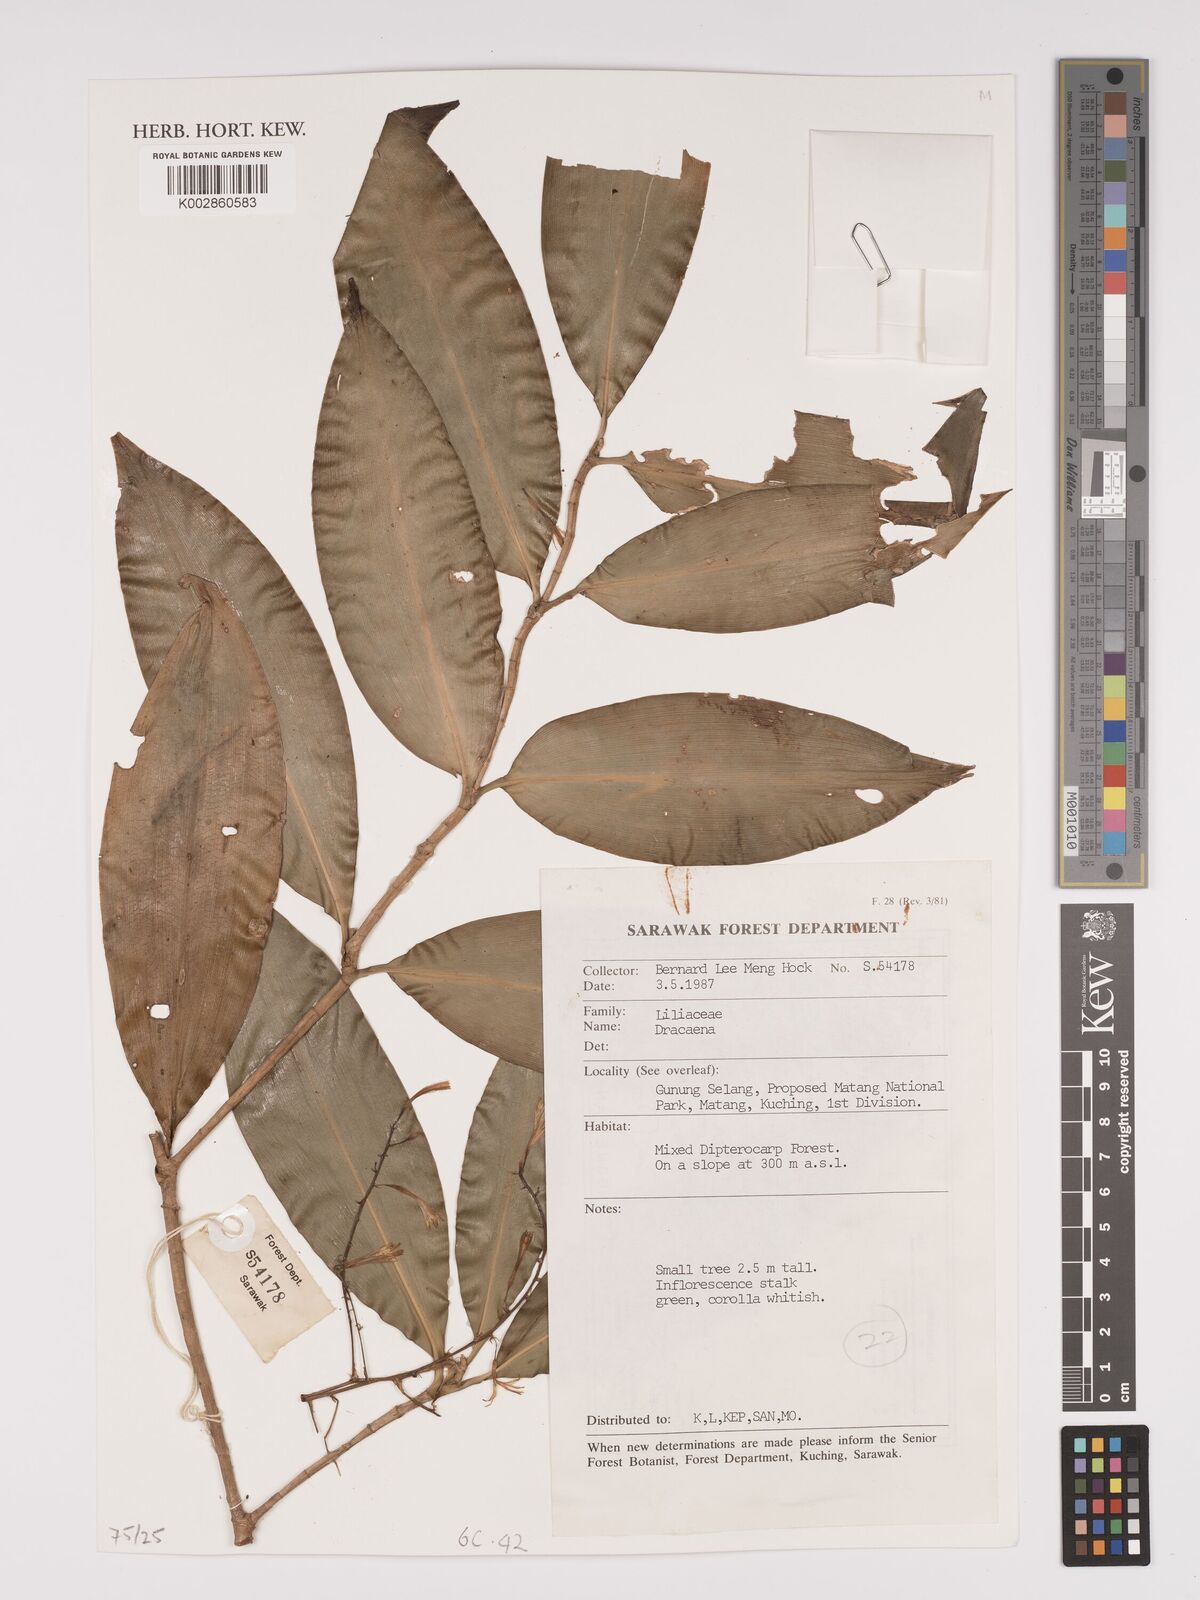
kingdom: Plantae
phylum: Tracheophyta
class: Liliopsida
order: Asparagales
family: Asparagaceae
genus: Dracaena
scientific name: Dracaena
